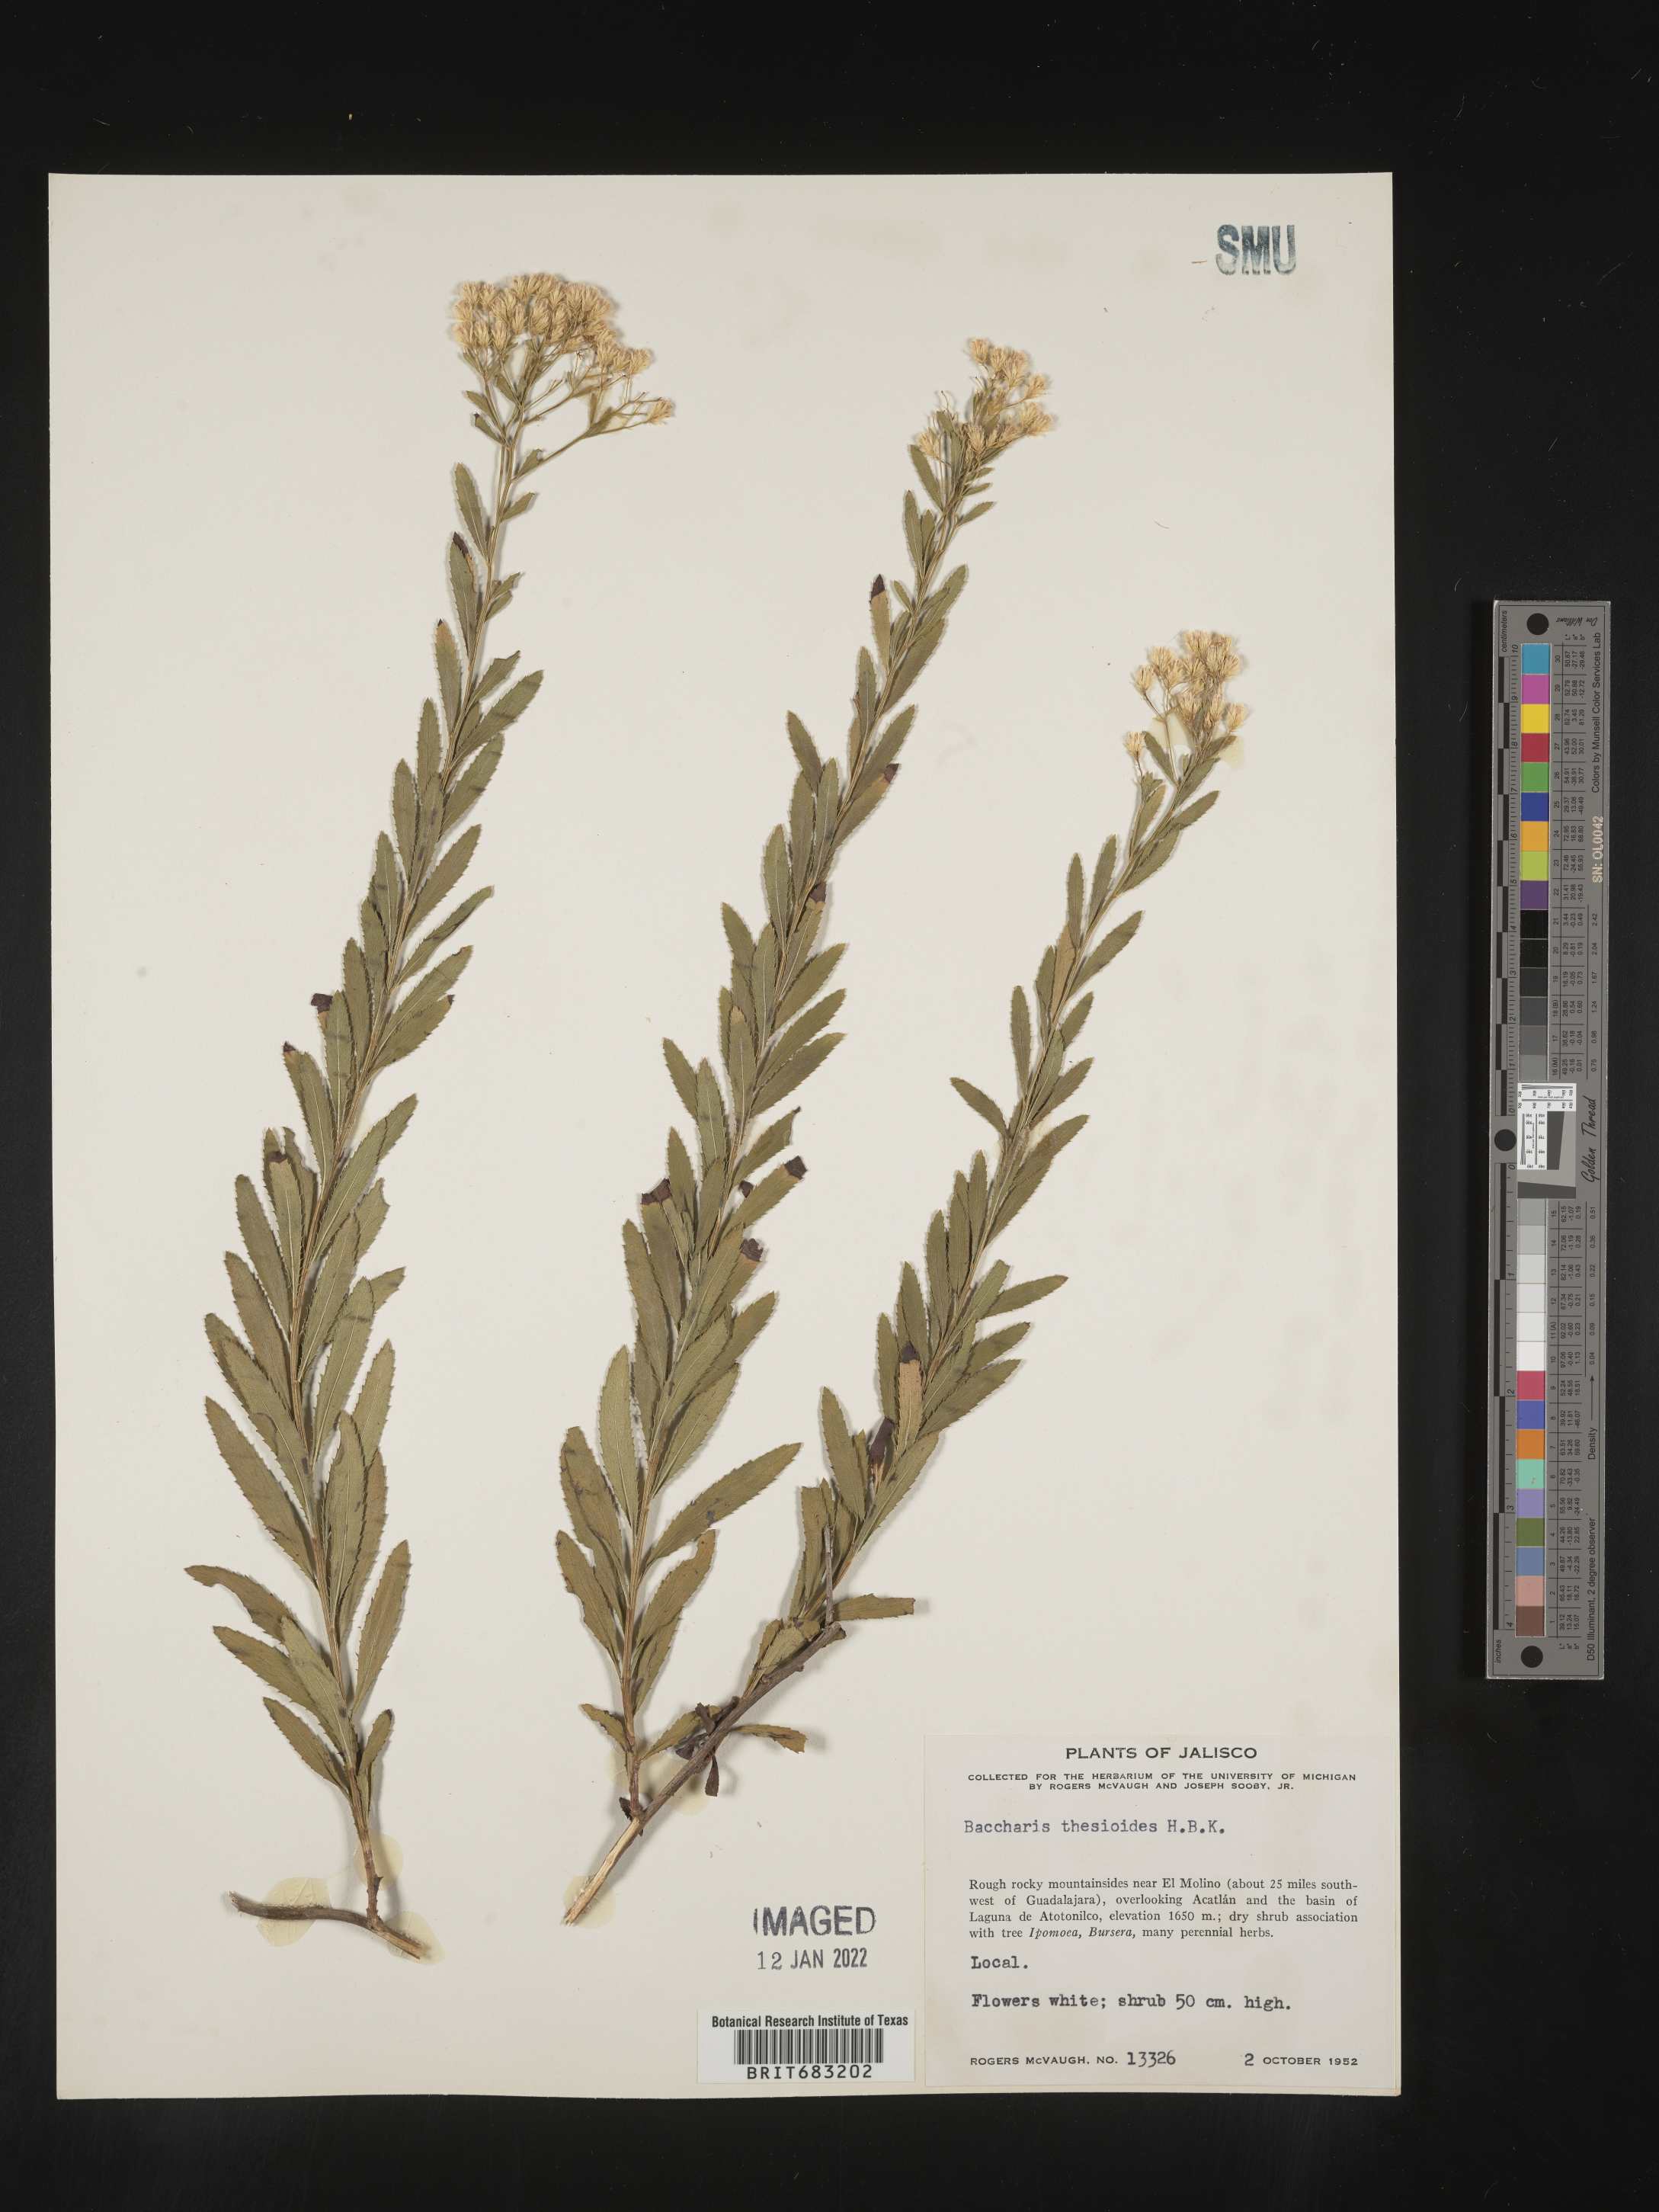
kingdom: Plantae
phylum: Tracheophyta
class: Magnoliopsida
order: Asterales
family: Asteraceae
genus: Baccharis
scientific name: Baccharis thesioides
